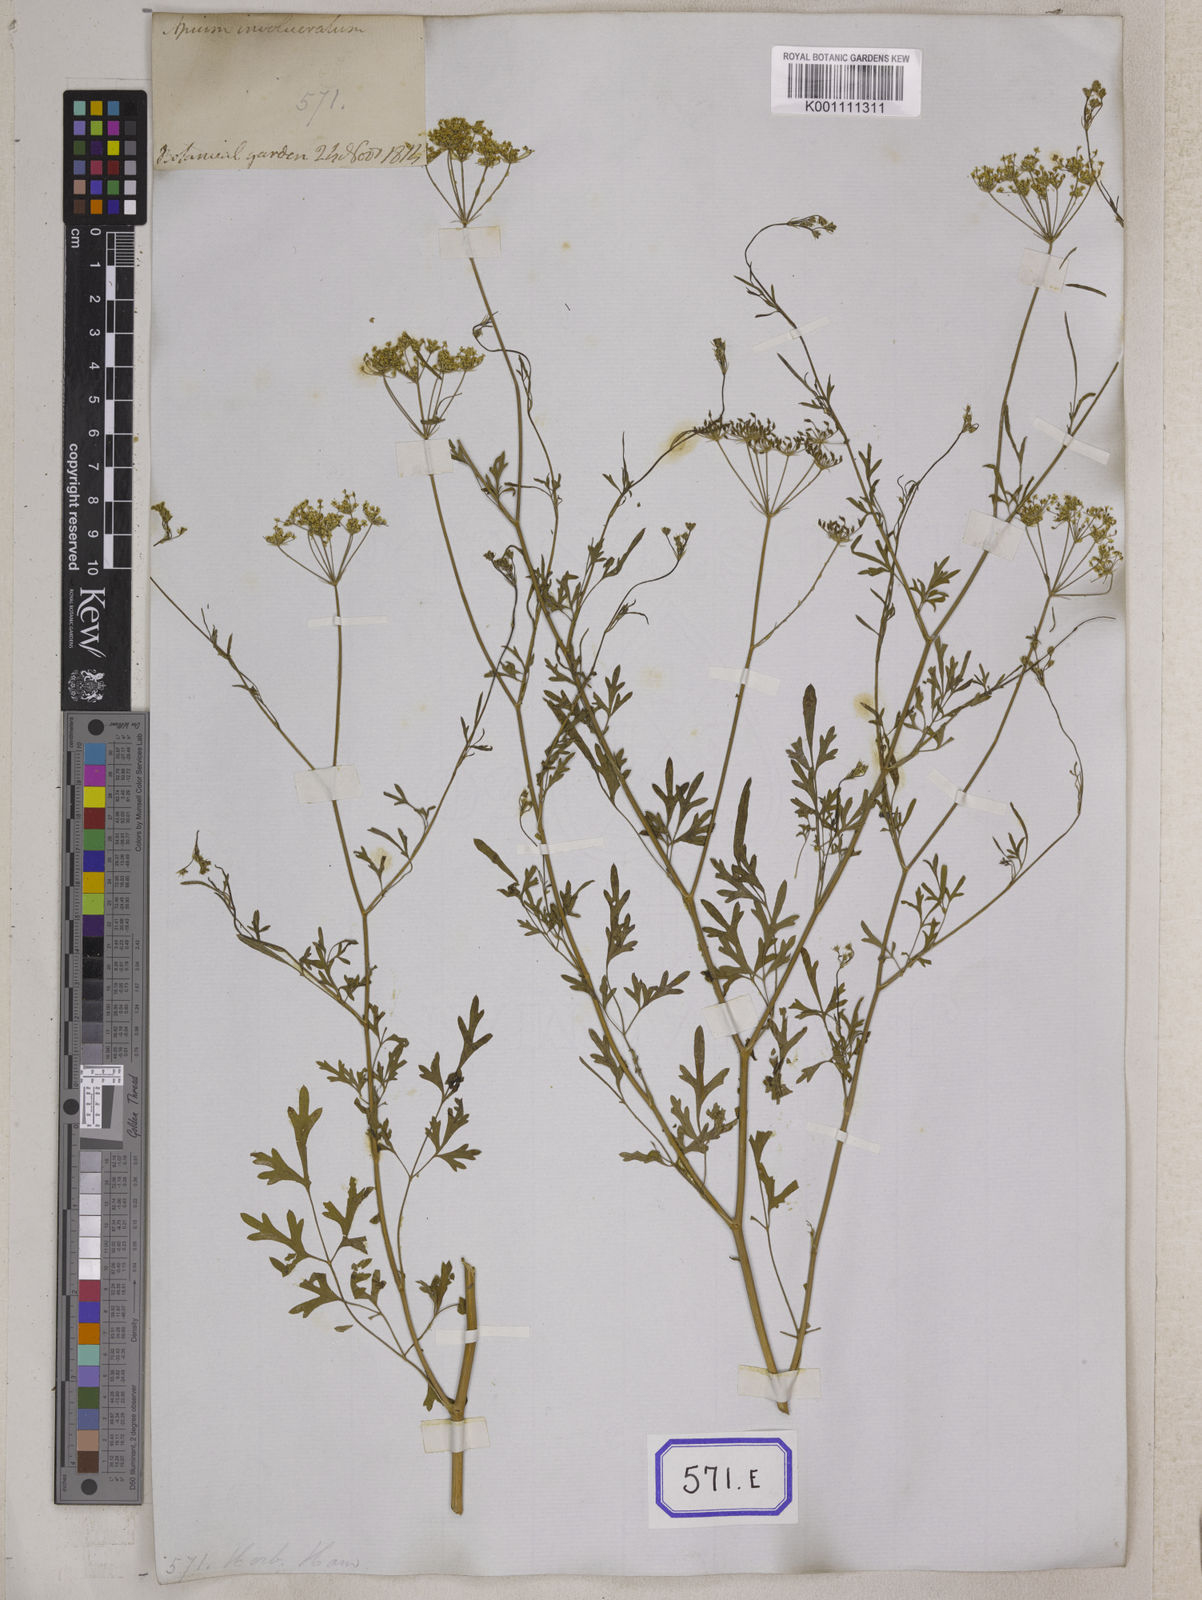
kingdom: Plantae
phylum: Tracheophyta
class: Magnoliopsida
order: Apiales
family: Apiaceae
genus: Psammogeton
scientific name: Psammogeton involucratum
